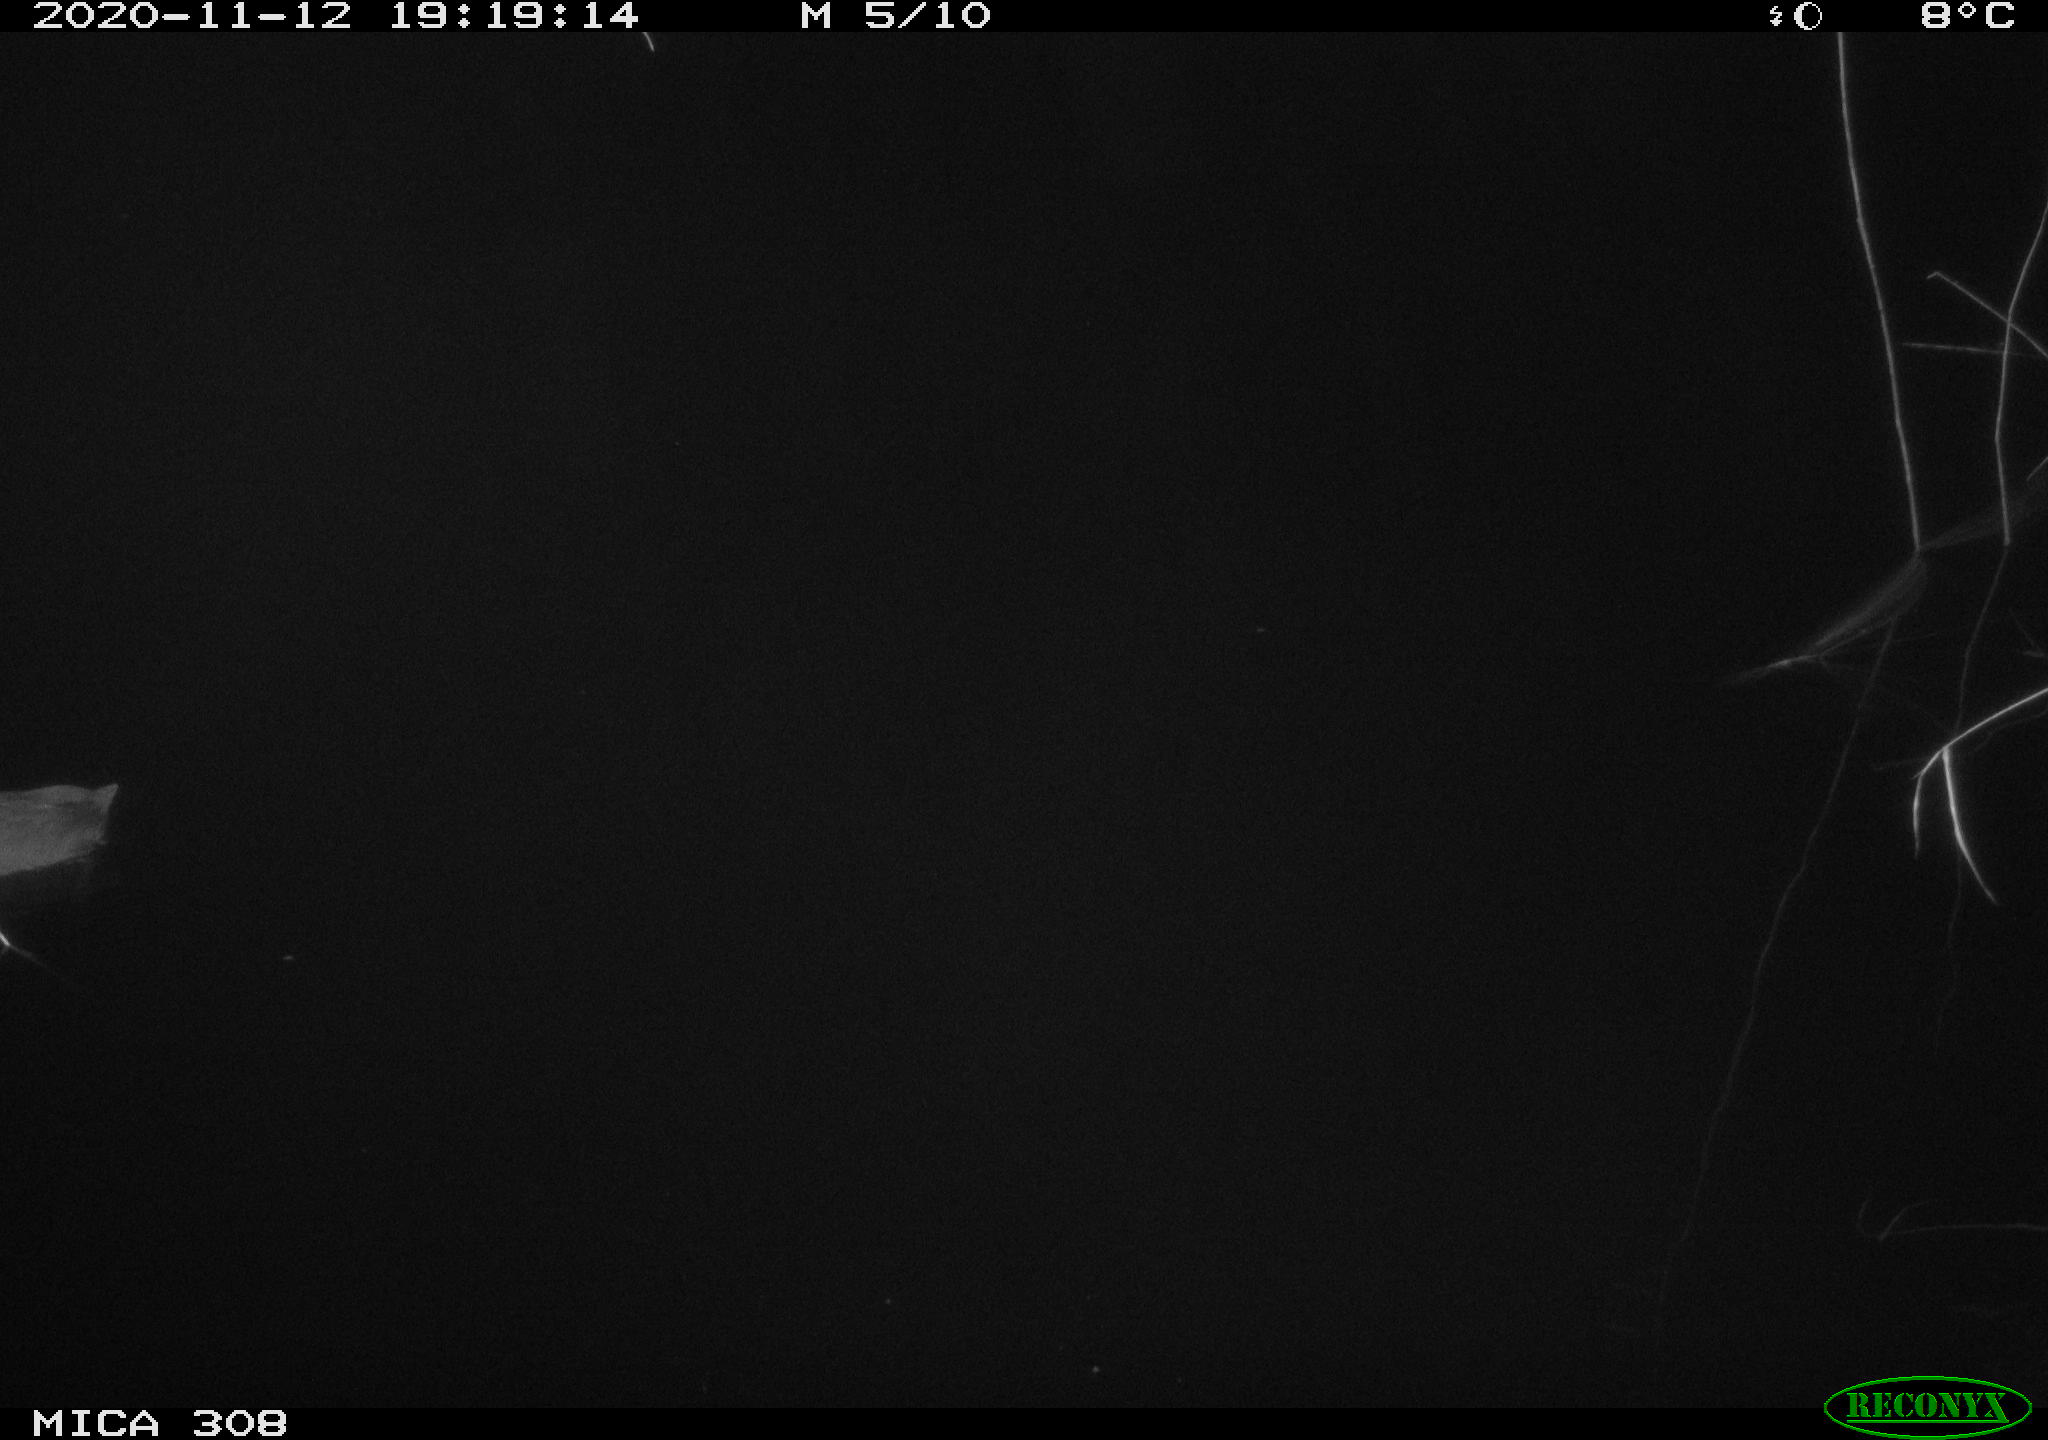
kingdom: Animalia
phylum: Chordata
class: Aves
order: Gruiformes
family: Rallidae
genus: Fulica
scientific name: Fulica atra
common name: Eurasian coot
